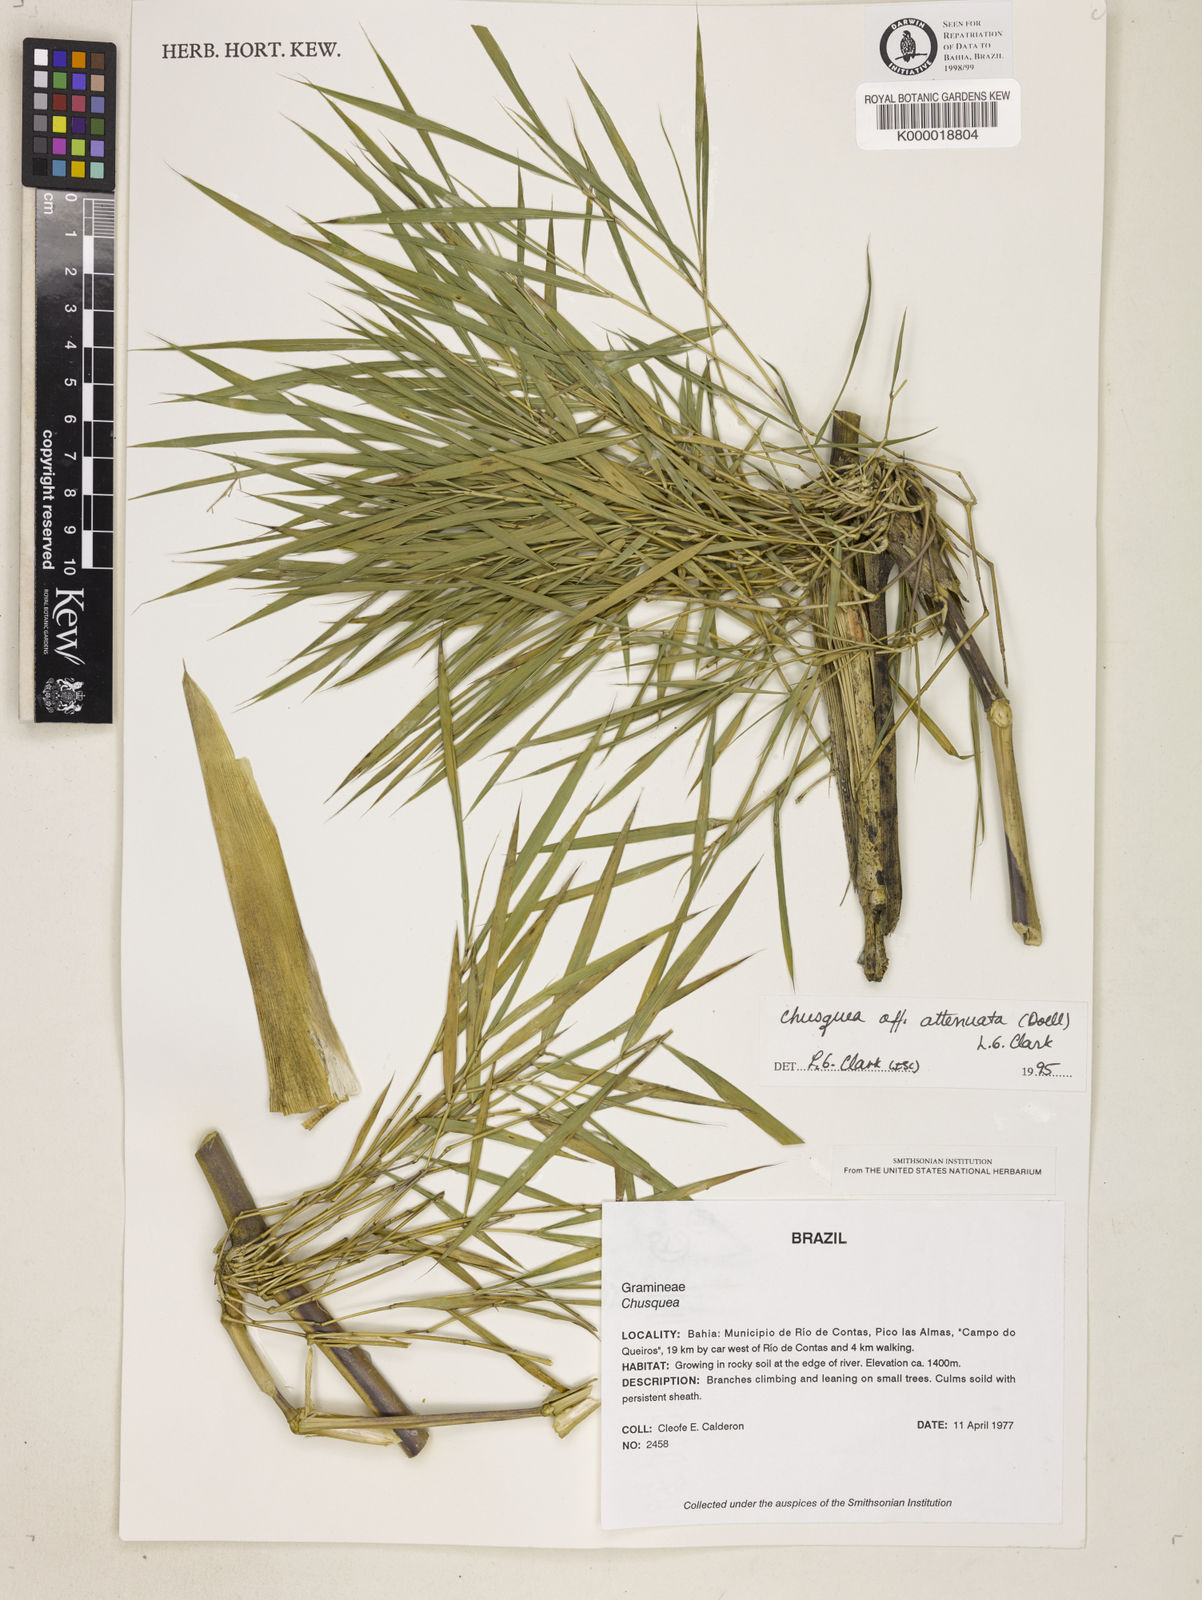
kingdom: Plantae
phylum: Tracheophyta
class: Liliopsida
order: Poales
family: Poaceae
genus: Chusquea
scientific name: Chusquea attenuata
